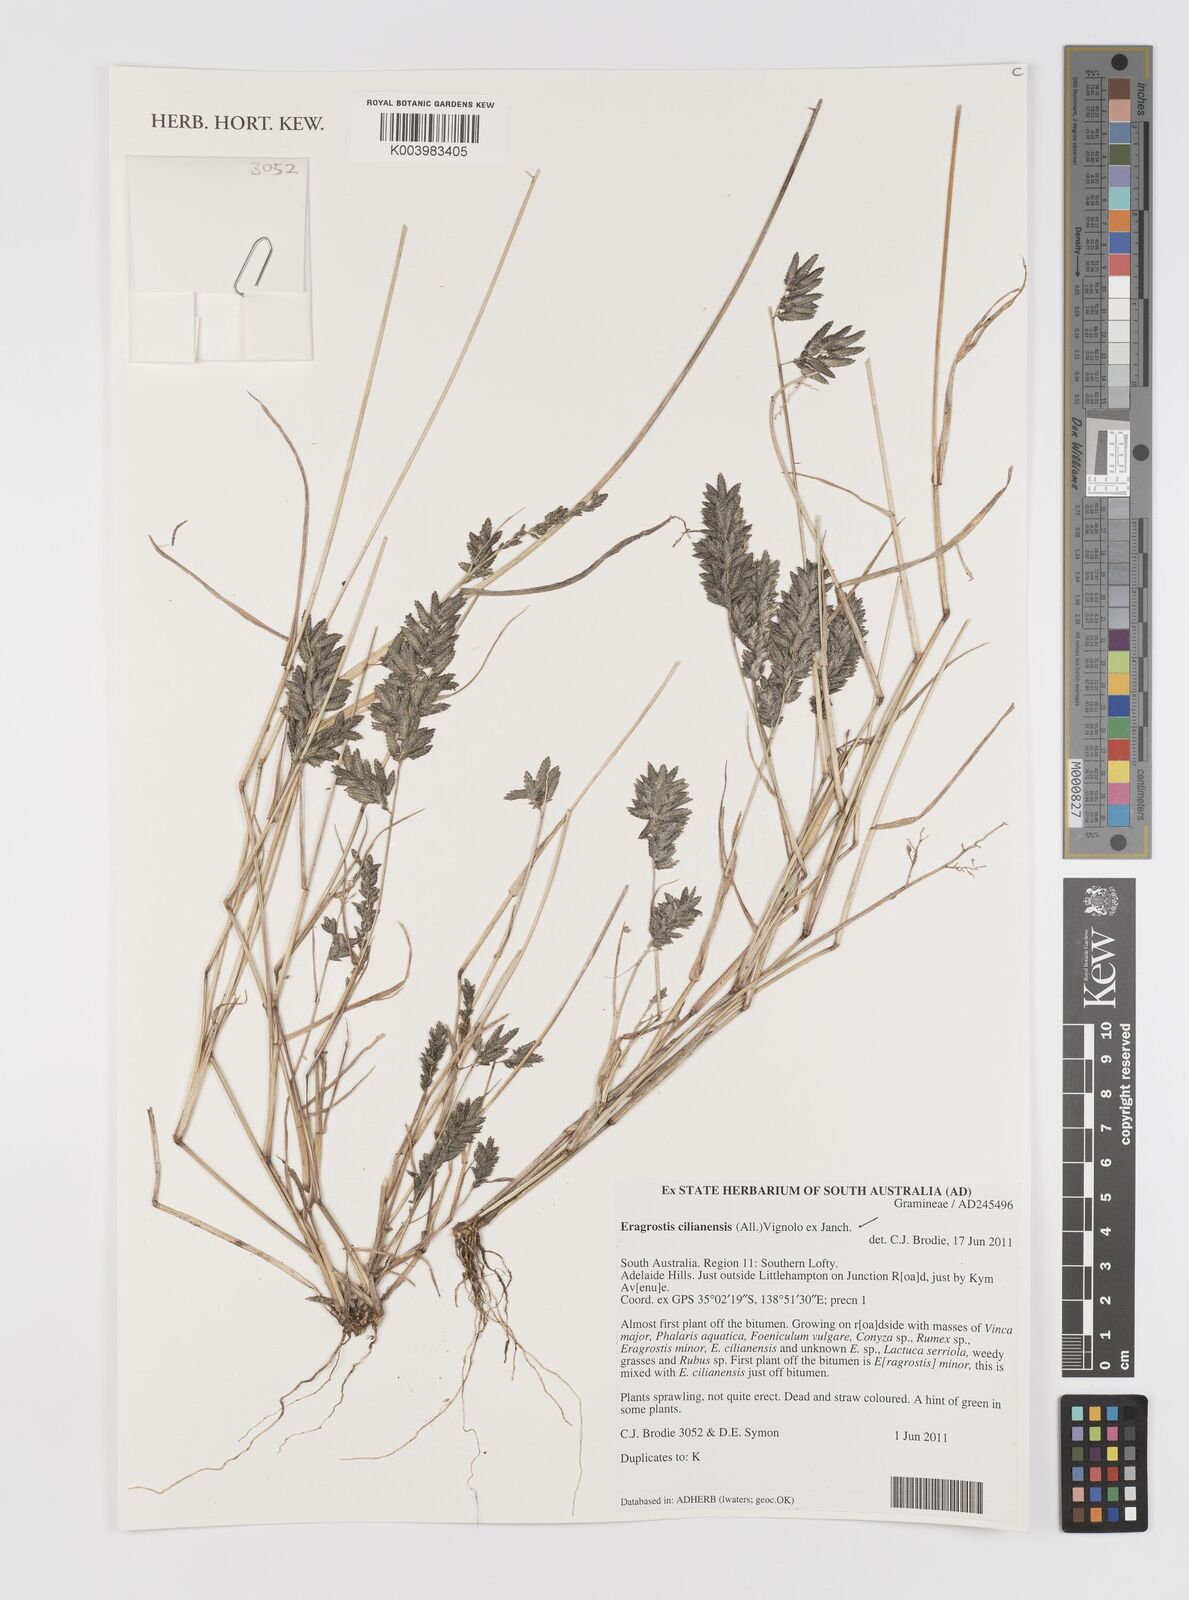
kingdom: Plantae
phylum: Tracheophyta
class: Liliopsida
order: Poales
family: Poaceae
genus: Eragrostis
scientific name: Eragrostis cilianensis
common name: Stinkgrass
